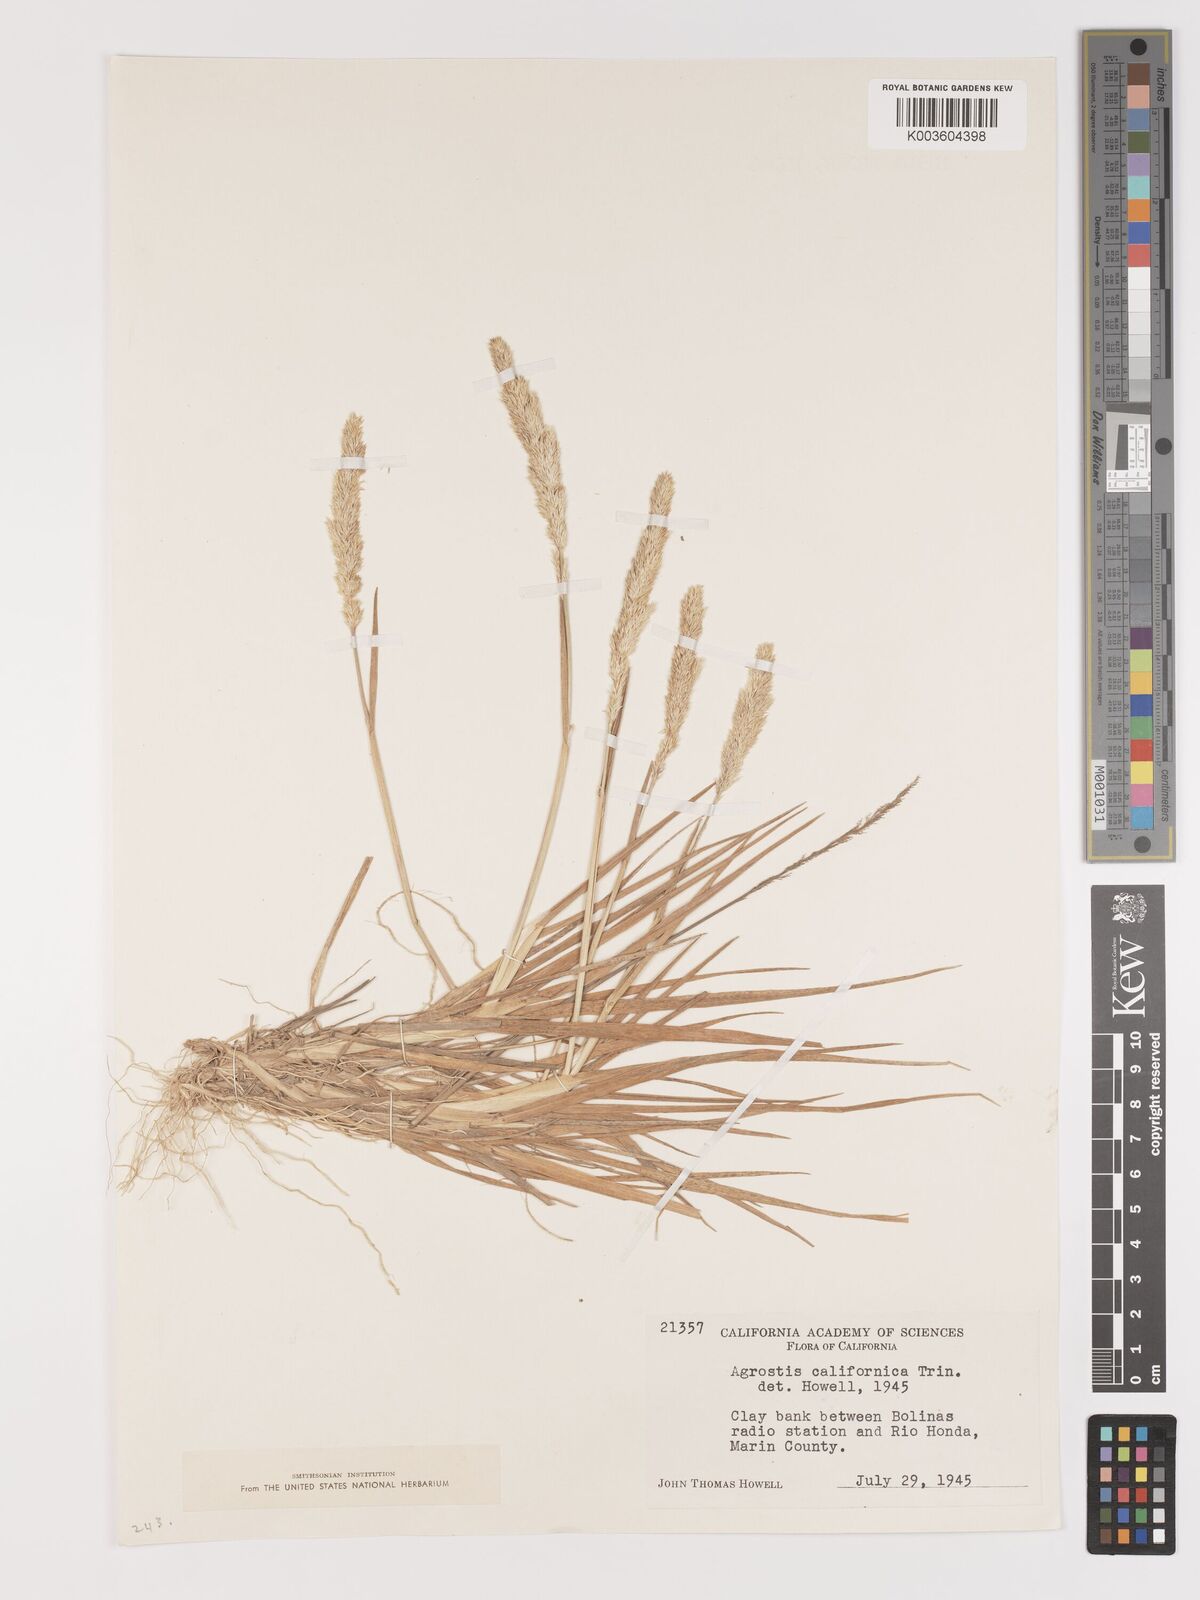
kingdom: Plantae
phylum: Tracheophyta
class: Liliopsida
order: Poales
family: Poaceae
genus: Agrostis
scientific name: Agrostis tolucensis
